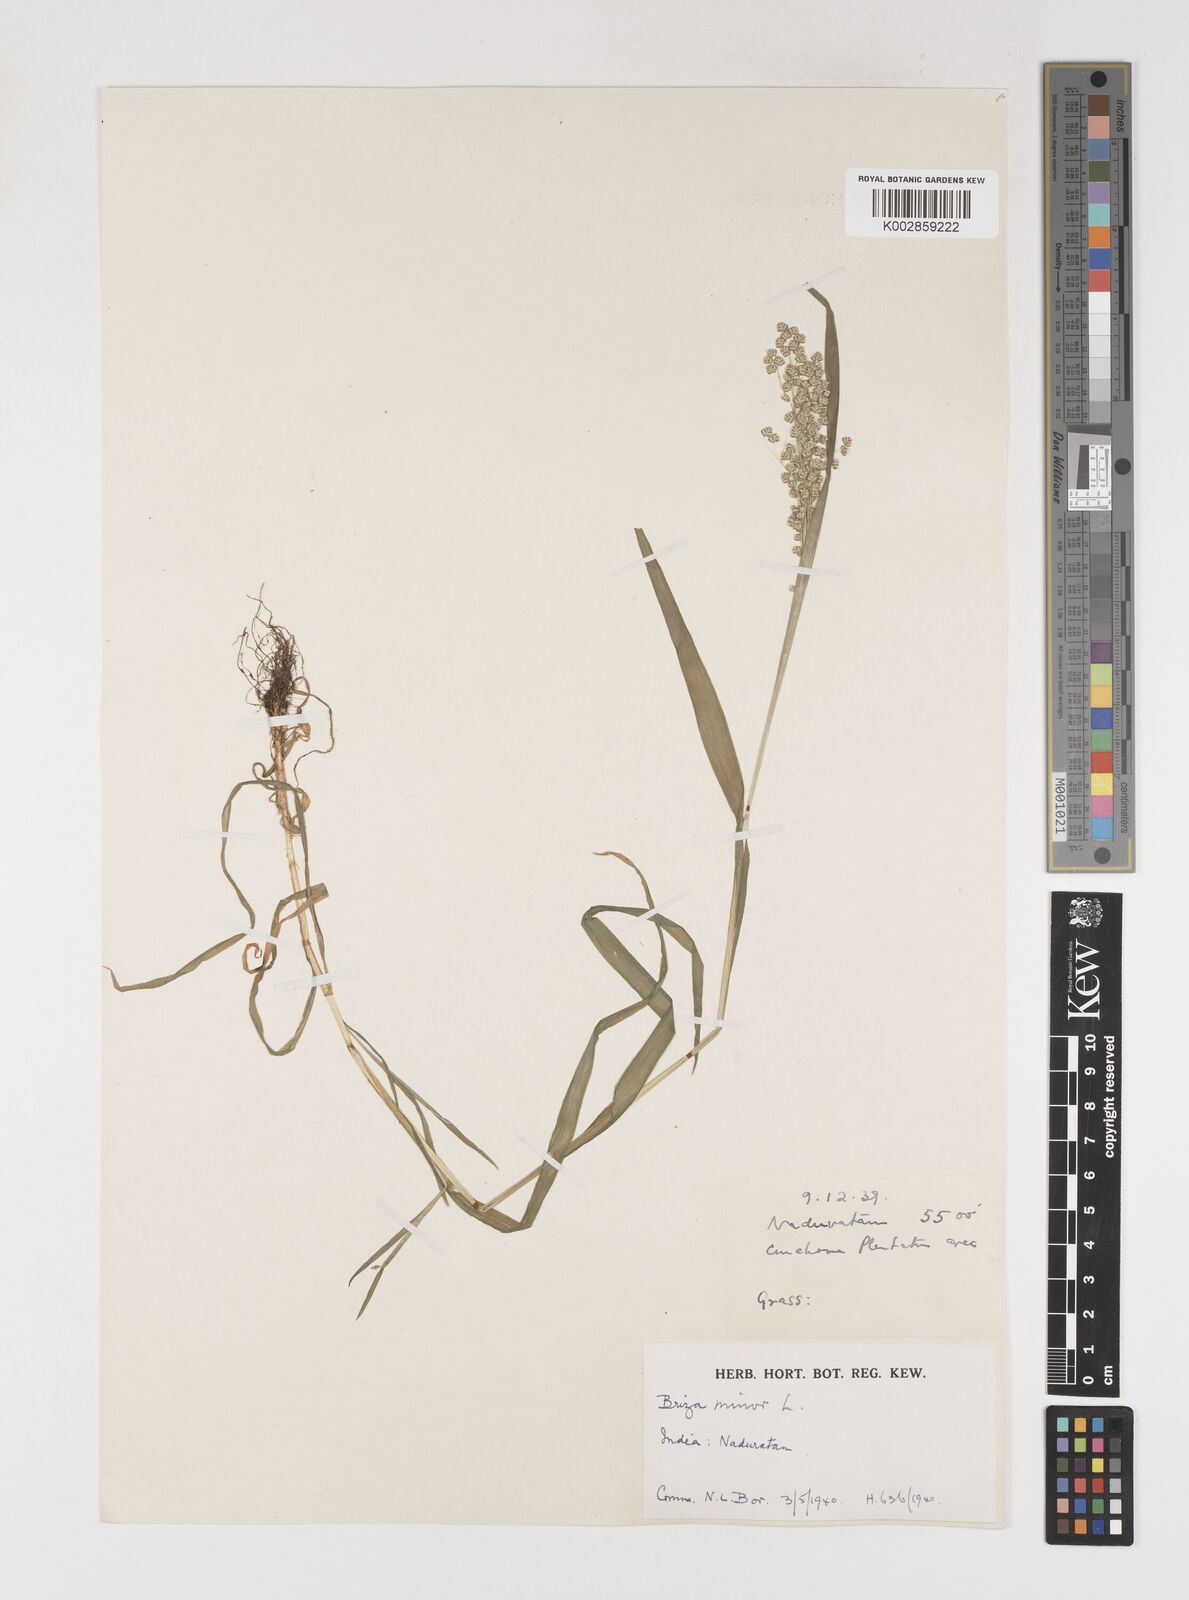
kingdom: Plantae
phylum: Tracheophyta
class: Liliopsida
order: Poales
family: Poaceae
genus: Briza
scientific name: Briza minor
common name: Lesser quaking-grass
